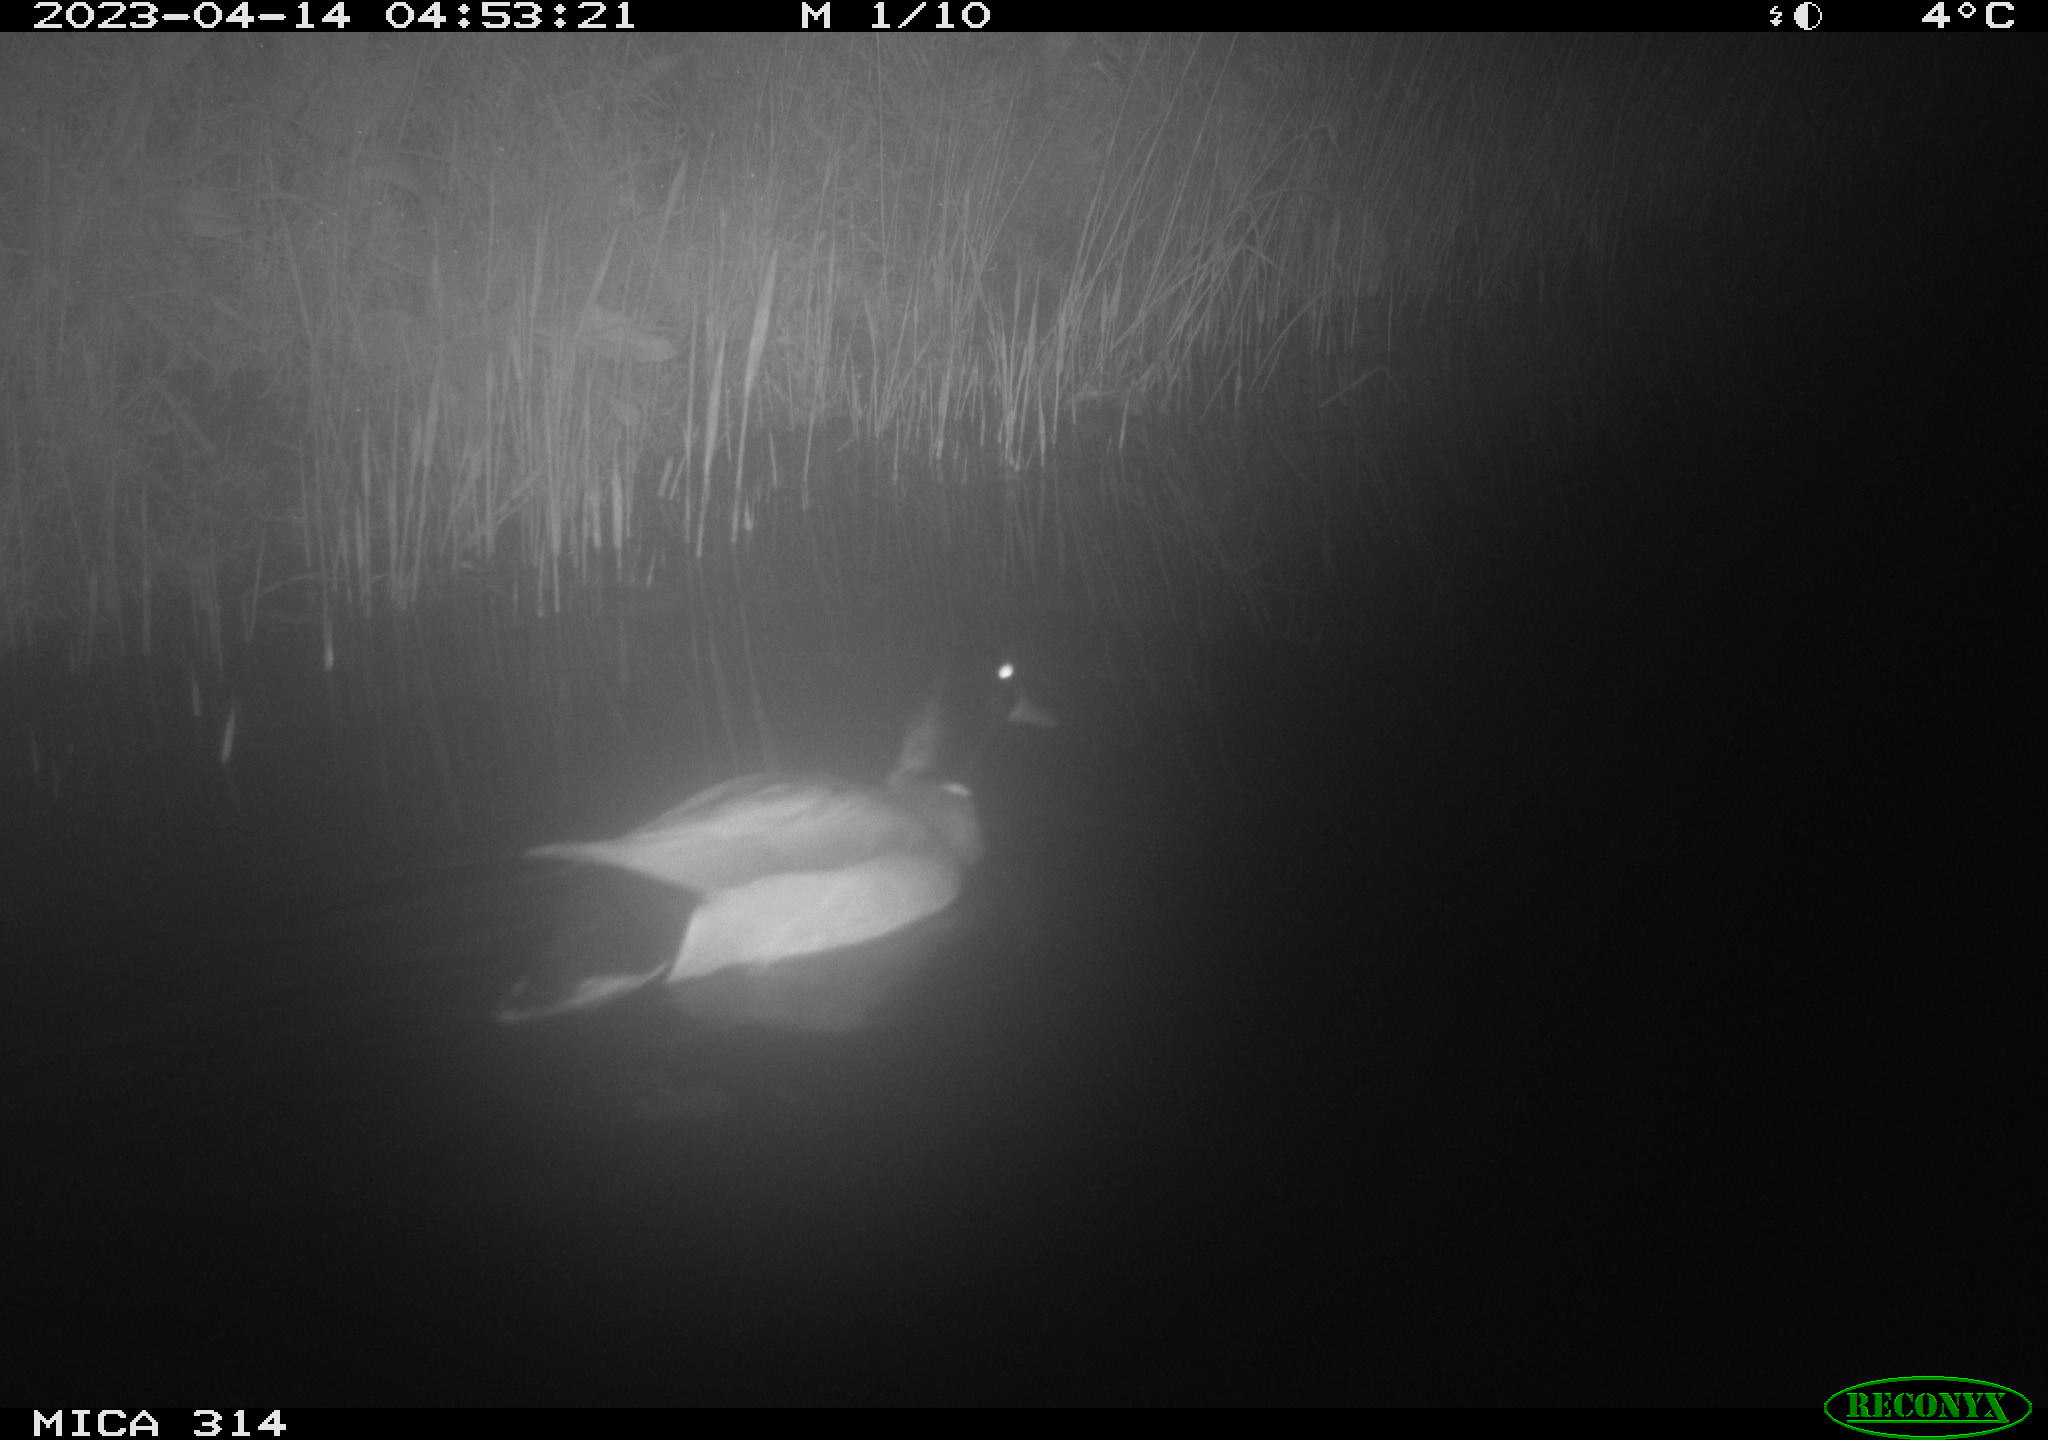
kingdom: Animalia
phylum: Chordata
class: Aves
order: Anseriformes
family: Anatidae
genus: Anas
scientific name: Anas
